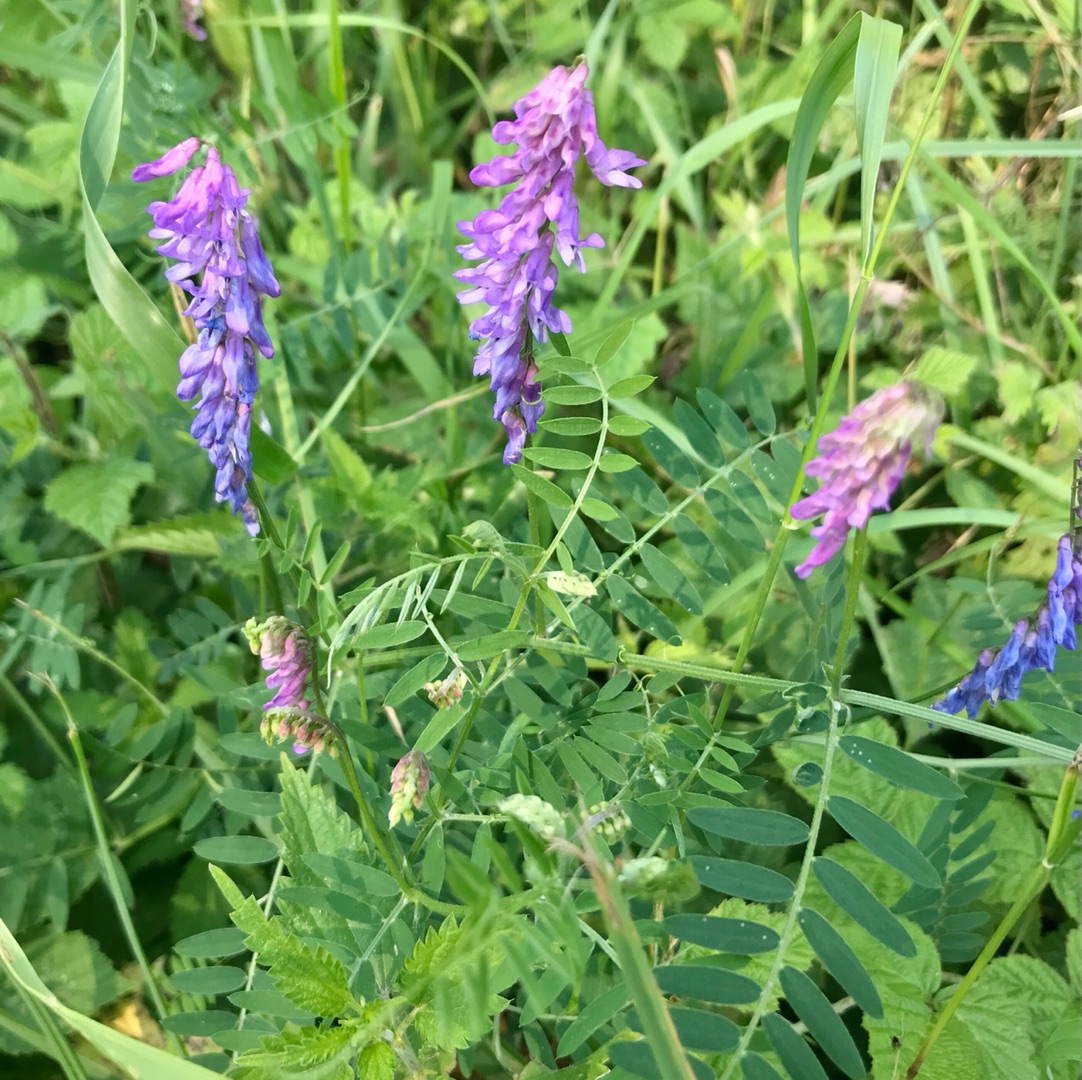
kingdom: Plantae
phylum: Tracheophyta
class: Magnoliopsida
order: Fabales
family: Fabaceae
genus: Vicia
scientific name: Vicia cracca
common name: Muse-vikke
